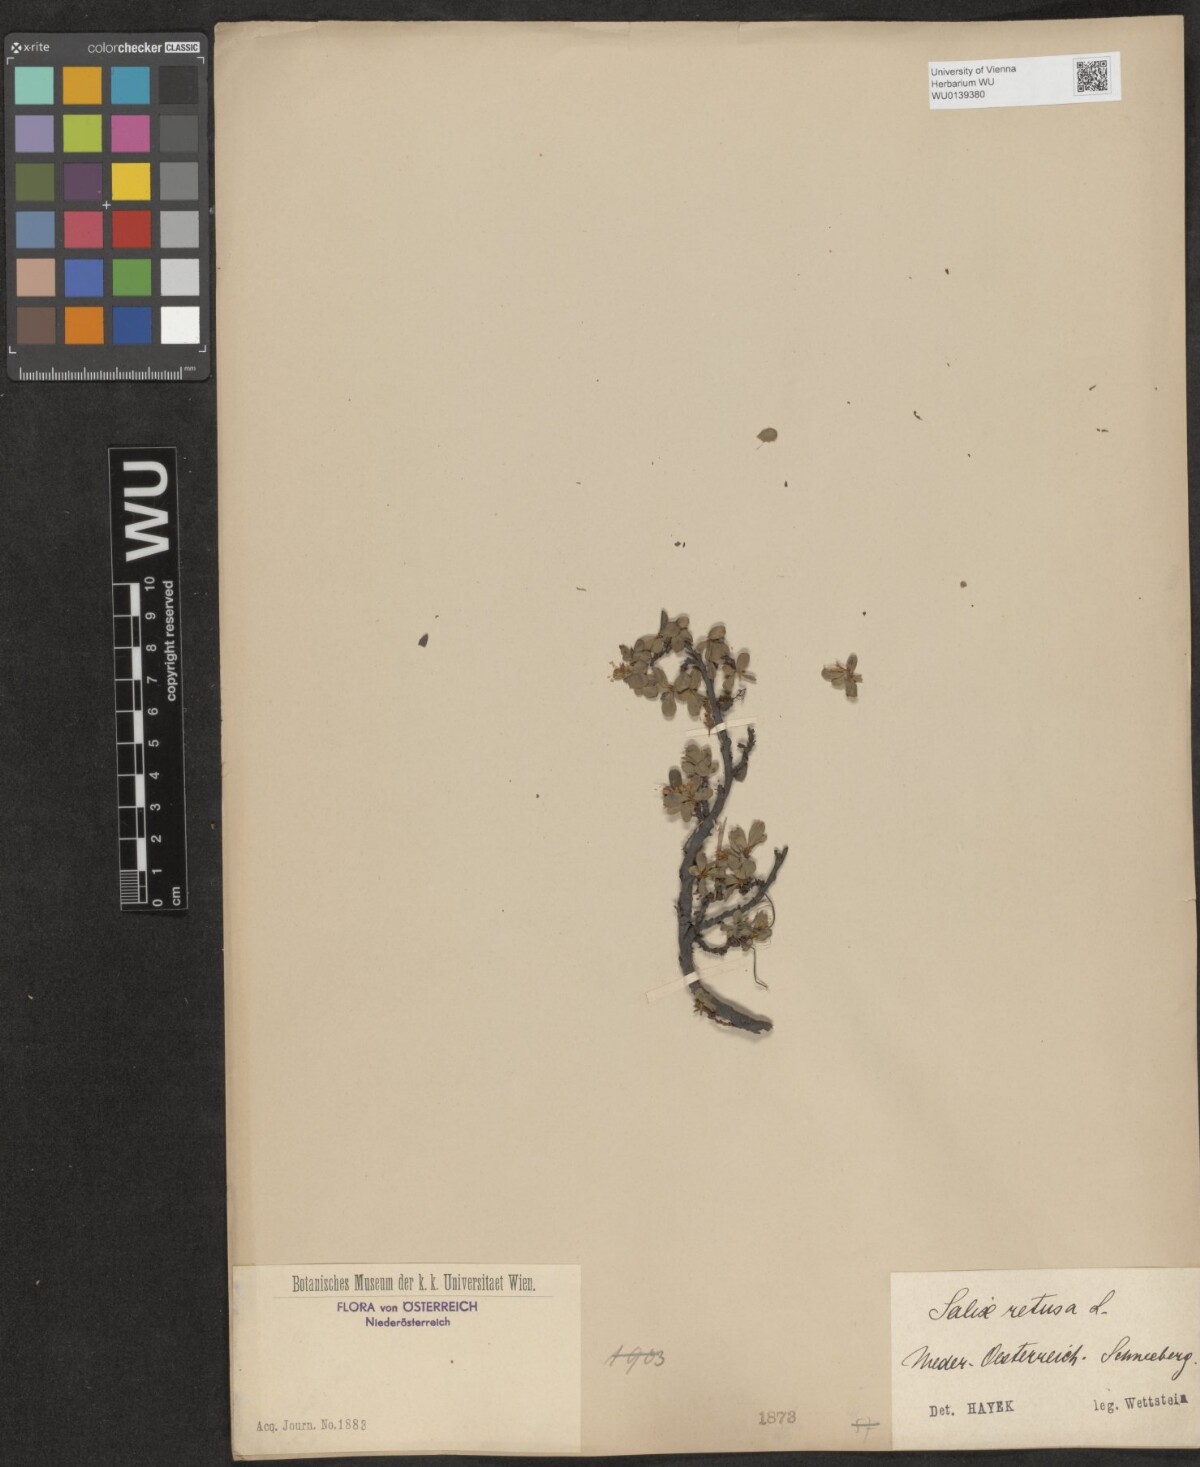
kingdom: Plantae
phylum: Tracheophyta
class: Magnoliopsida
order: Malpighiales
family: Salicaceae
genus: Salix
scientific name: Salix retusa
